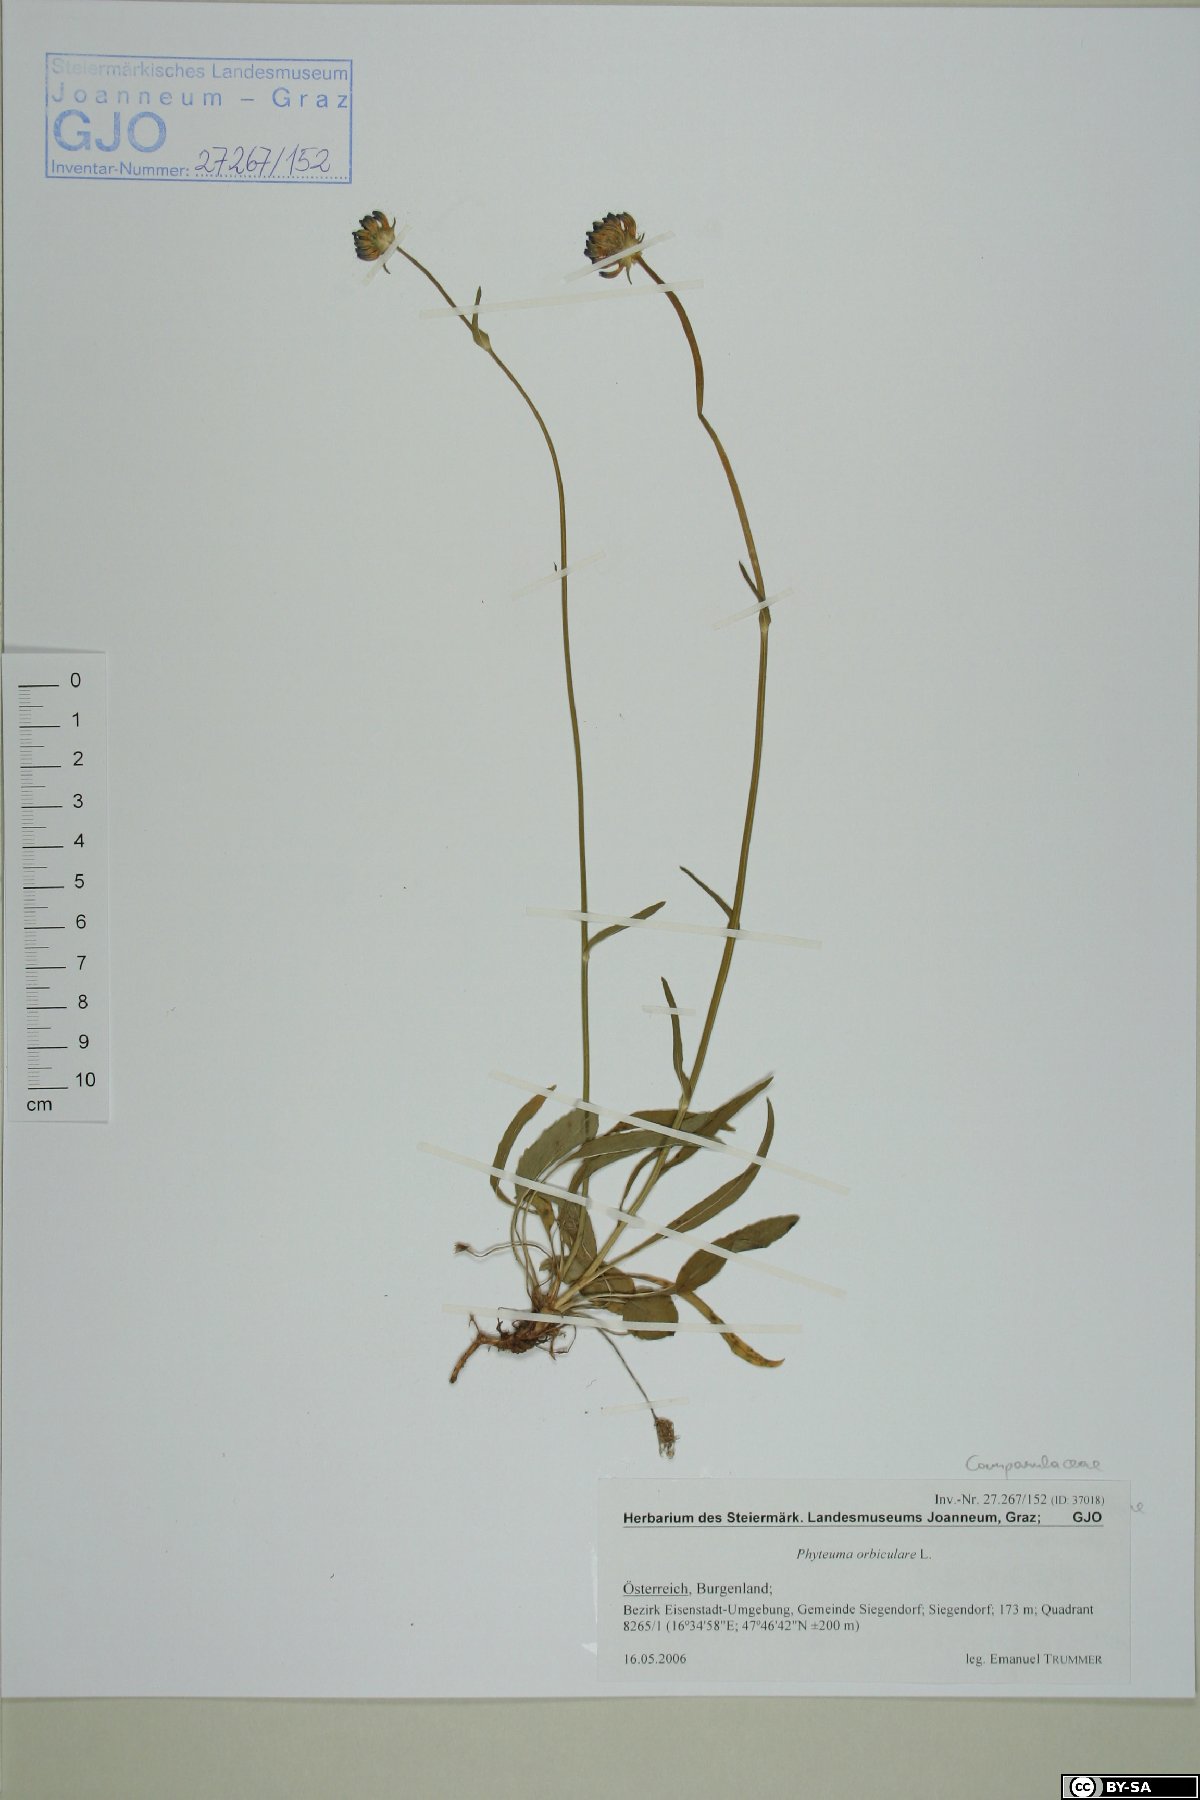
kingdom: Plantae
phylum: Tracheophyta
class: Magnoliopsida
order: Asterales
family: Campanulaceae
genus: Phyteuma
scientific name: Phyteuma orbiculare
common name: Round-headed rampion
